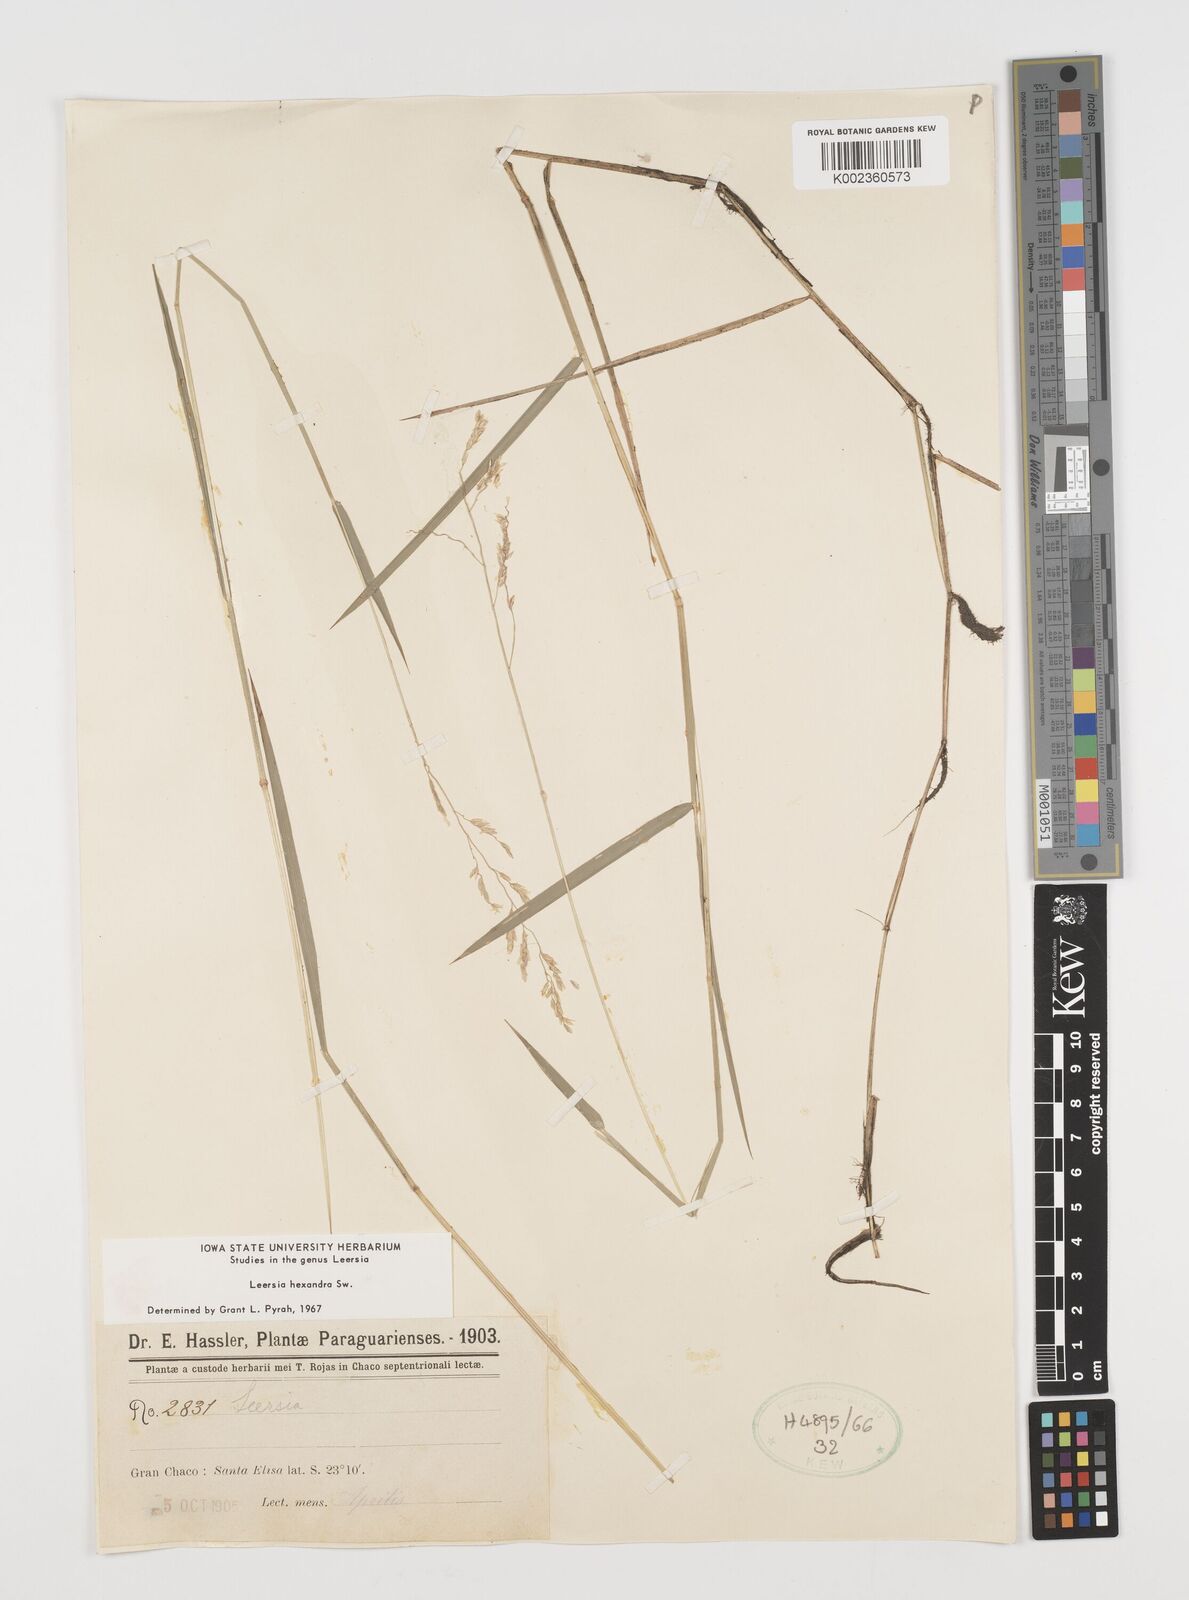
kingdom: Plantae
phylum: Tracheophyta
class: Liliopsida
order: Poales
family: Poaceae
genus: Leersia
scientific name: Leersia hexandra
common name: Southern cut grass
